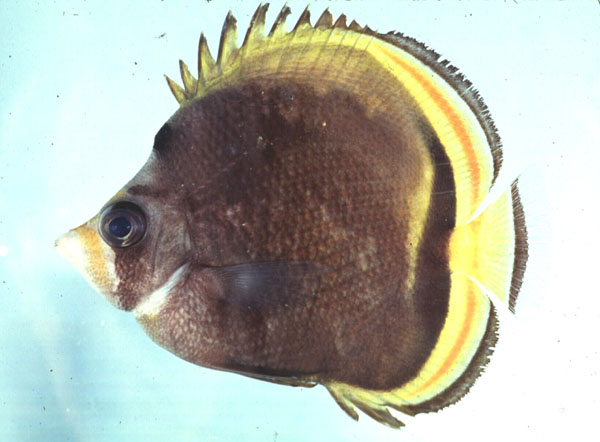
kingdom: Animalia
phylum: Chordata
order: Perciformes
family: Chaetodontidae
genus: Chaetodon
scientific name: Chaetodon flavirostris
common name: Black butterflyfish
